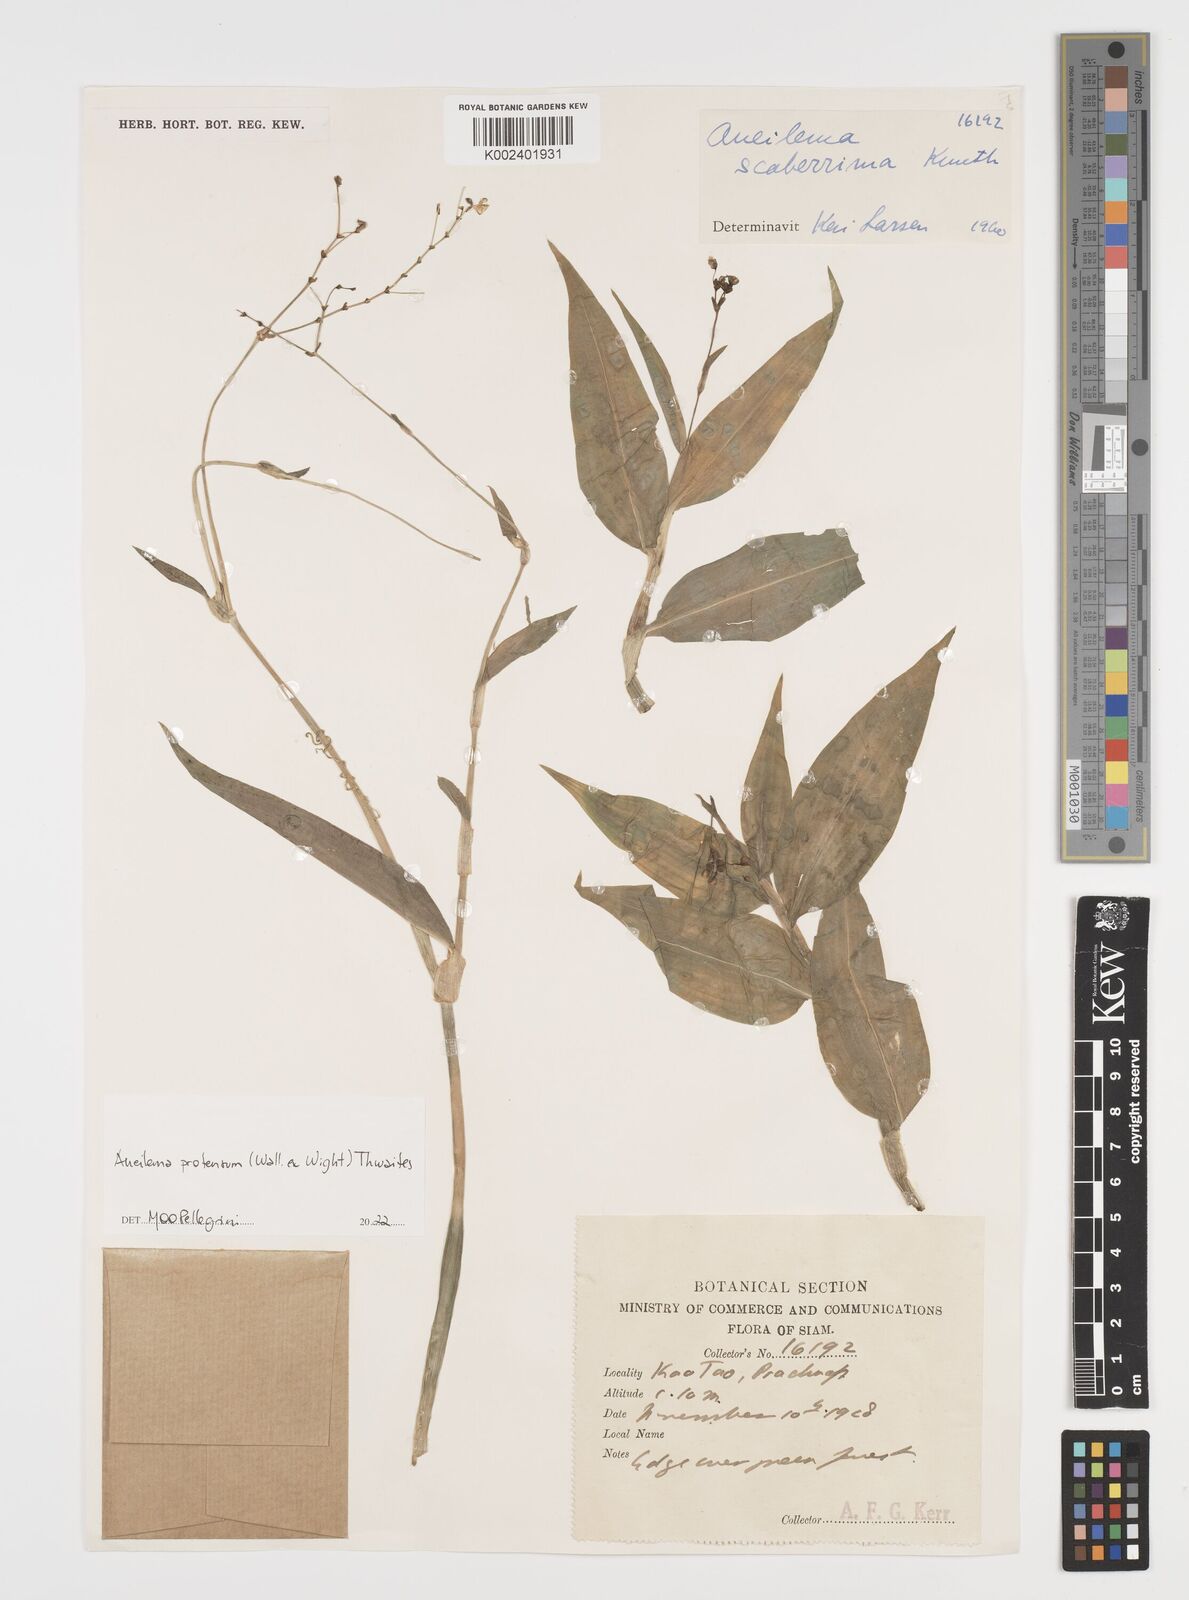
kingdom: Plantae
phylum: Tracheophyta
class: Liliopsida
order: Commelinales
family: Commelinaceae
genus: Rhopalephora
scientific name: Rhopalephora
